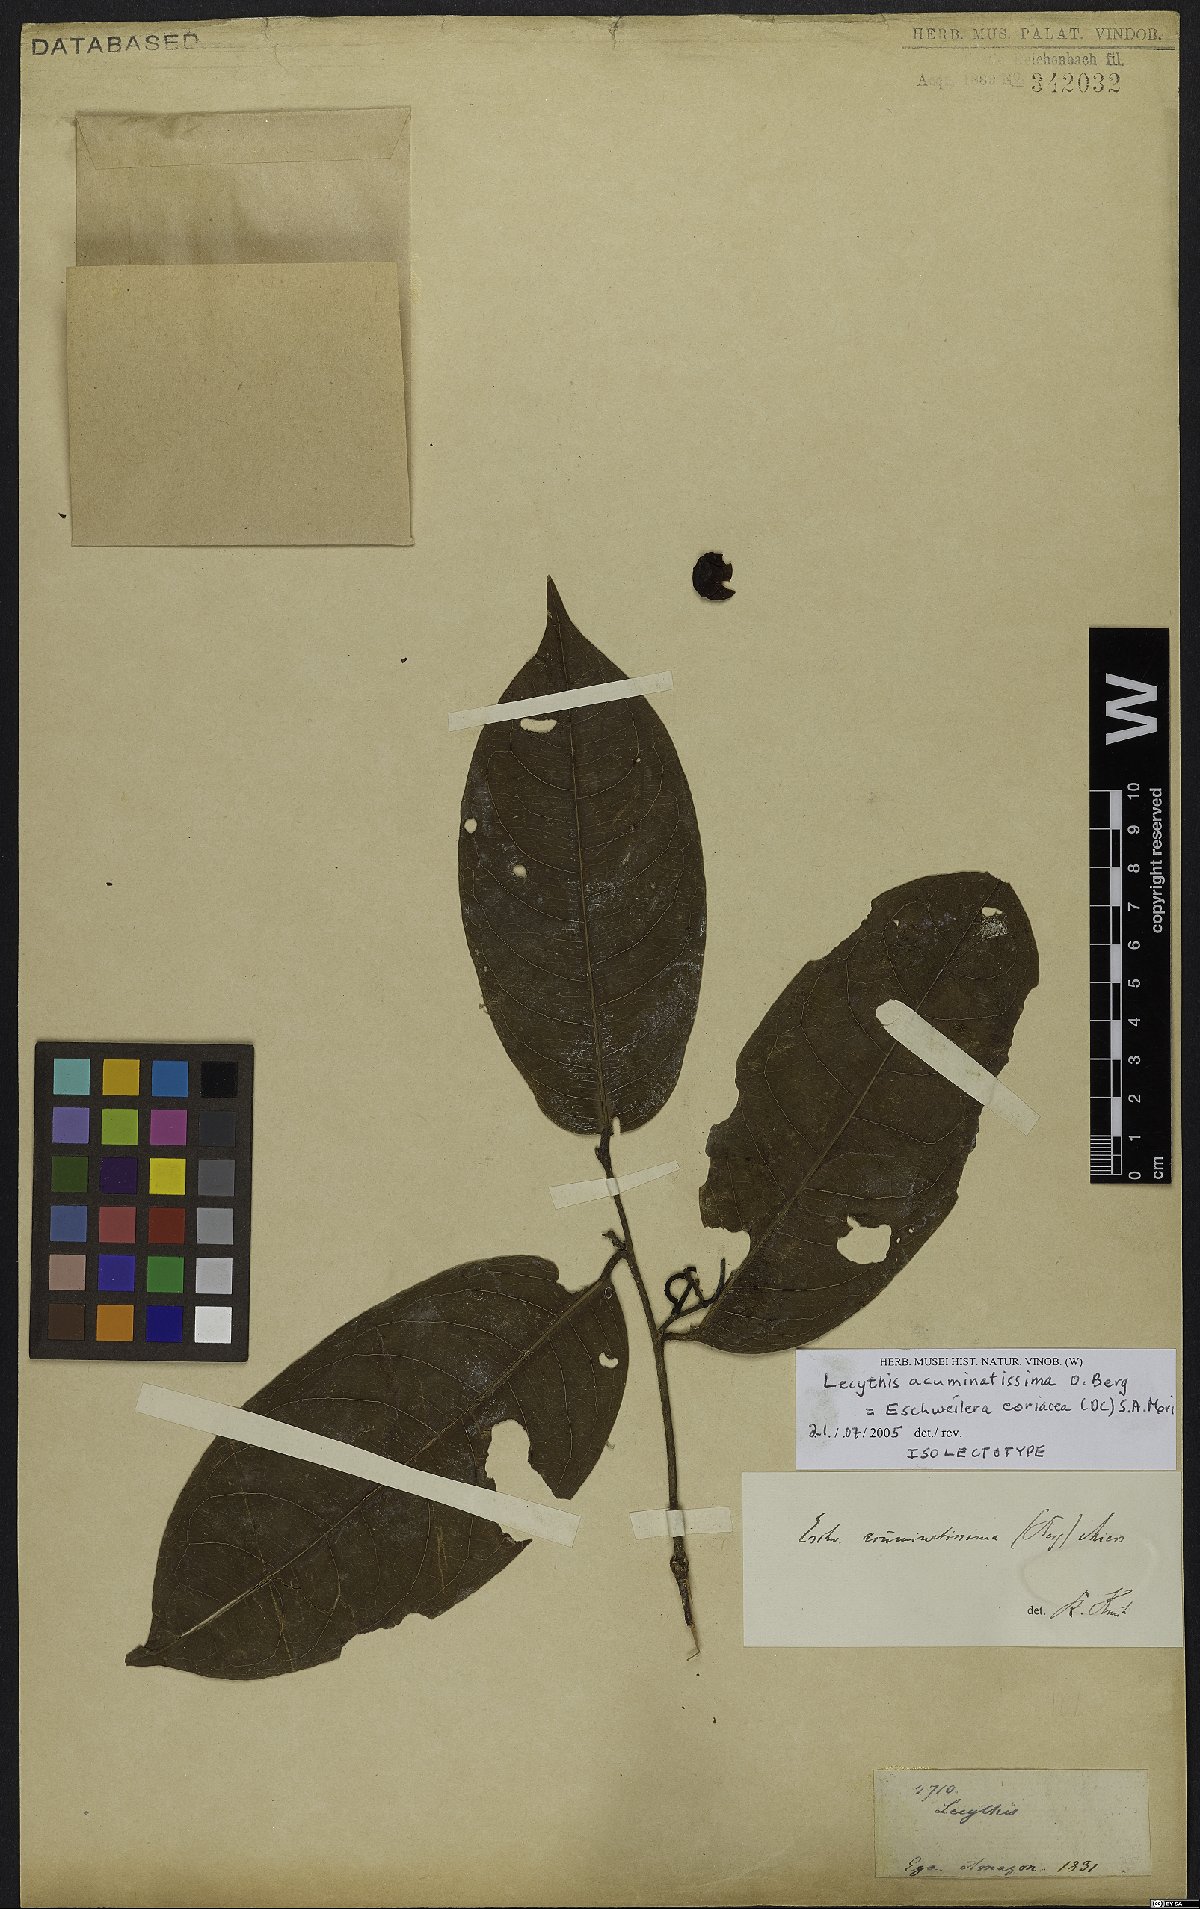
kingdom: Plantae
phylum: Tracheophyta
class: Magnoliopsida
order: Ericales
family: Lecythidaceae
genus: Eschweilera
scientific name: Eschweilera coriacea
